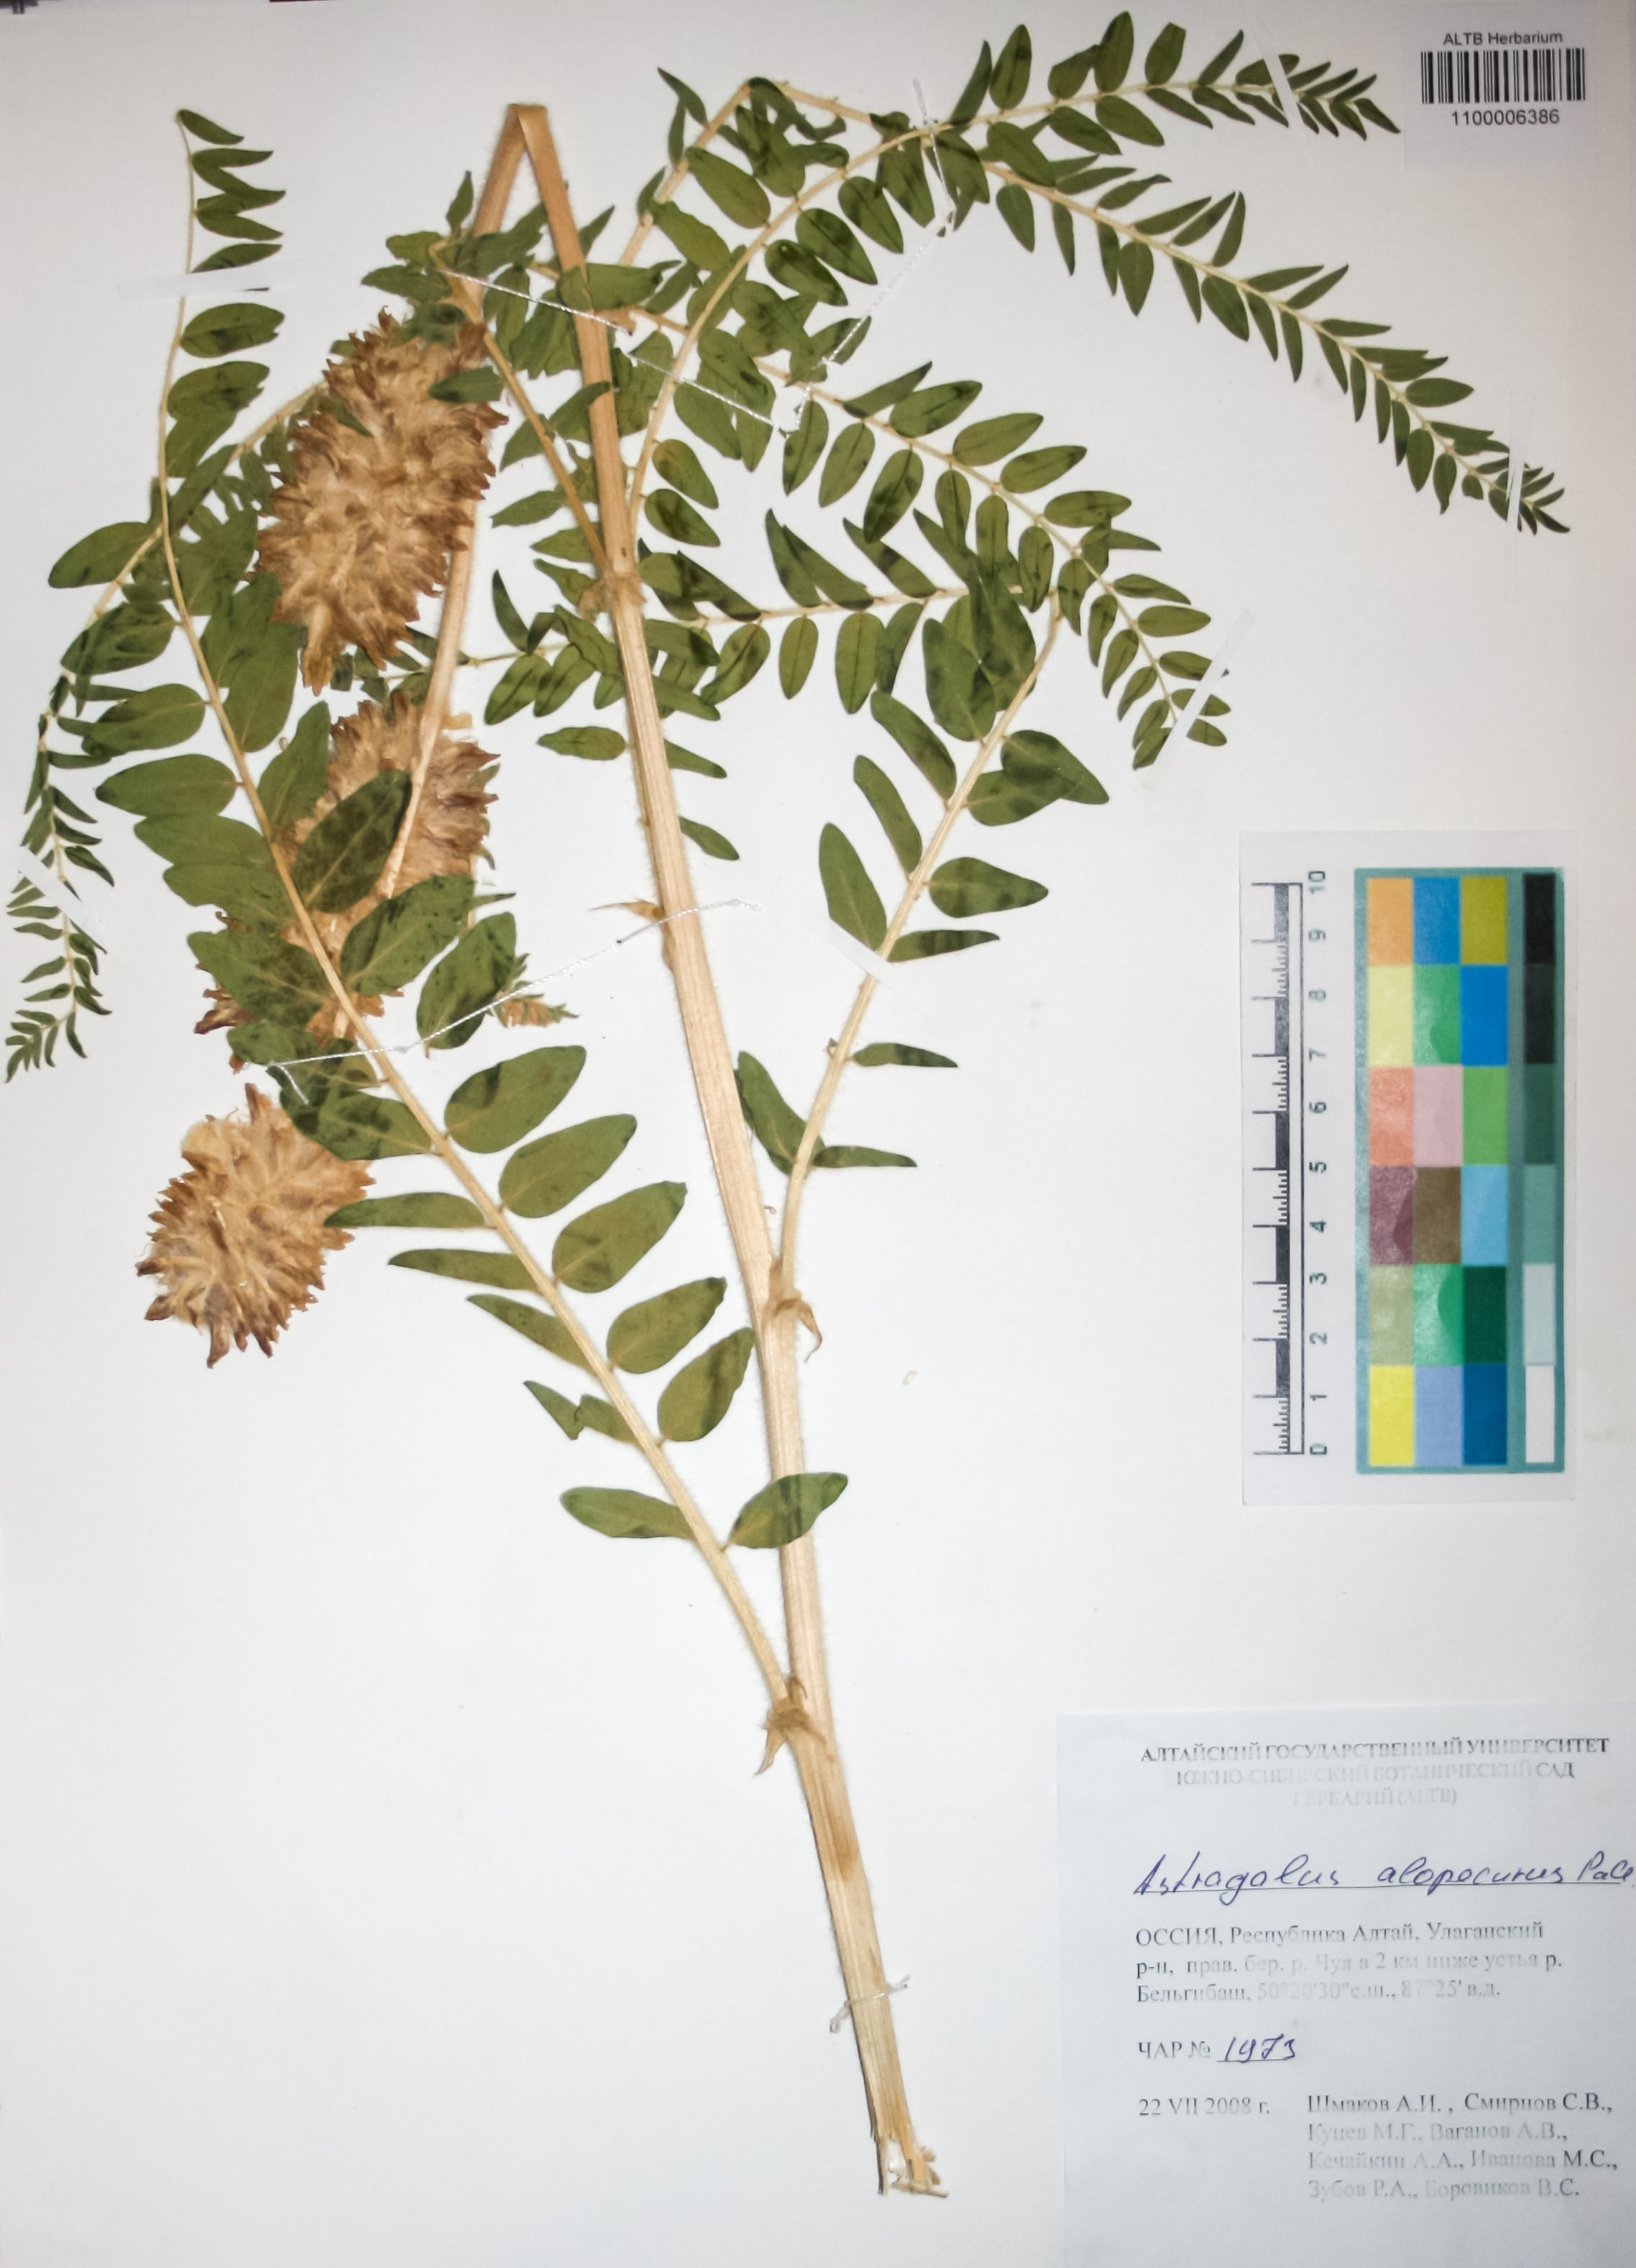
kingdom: Plantae
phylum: Tracheophyta
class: Magnoliopsida
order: Fabales
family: Fabaceae
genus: Astragalus
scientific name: Astragalus alopecurus
